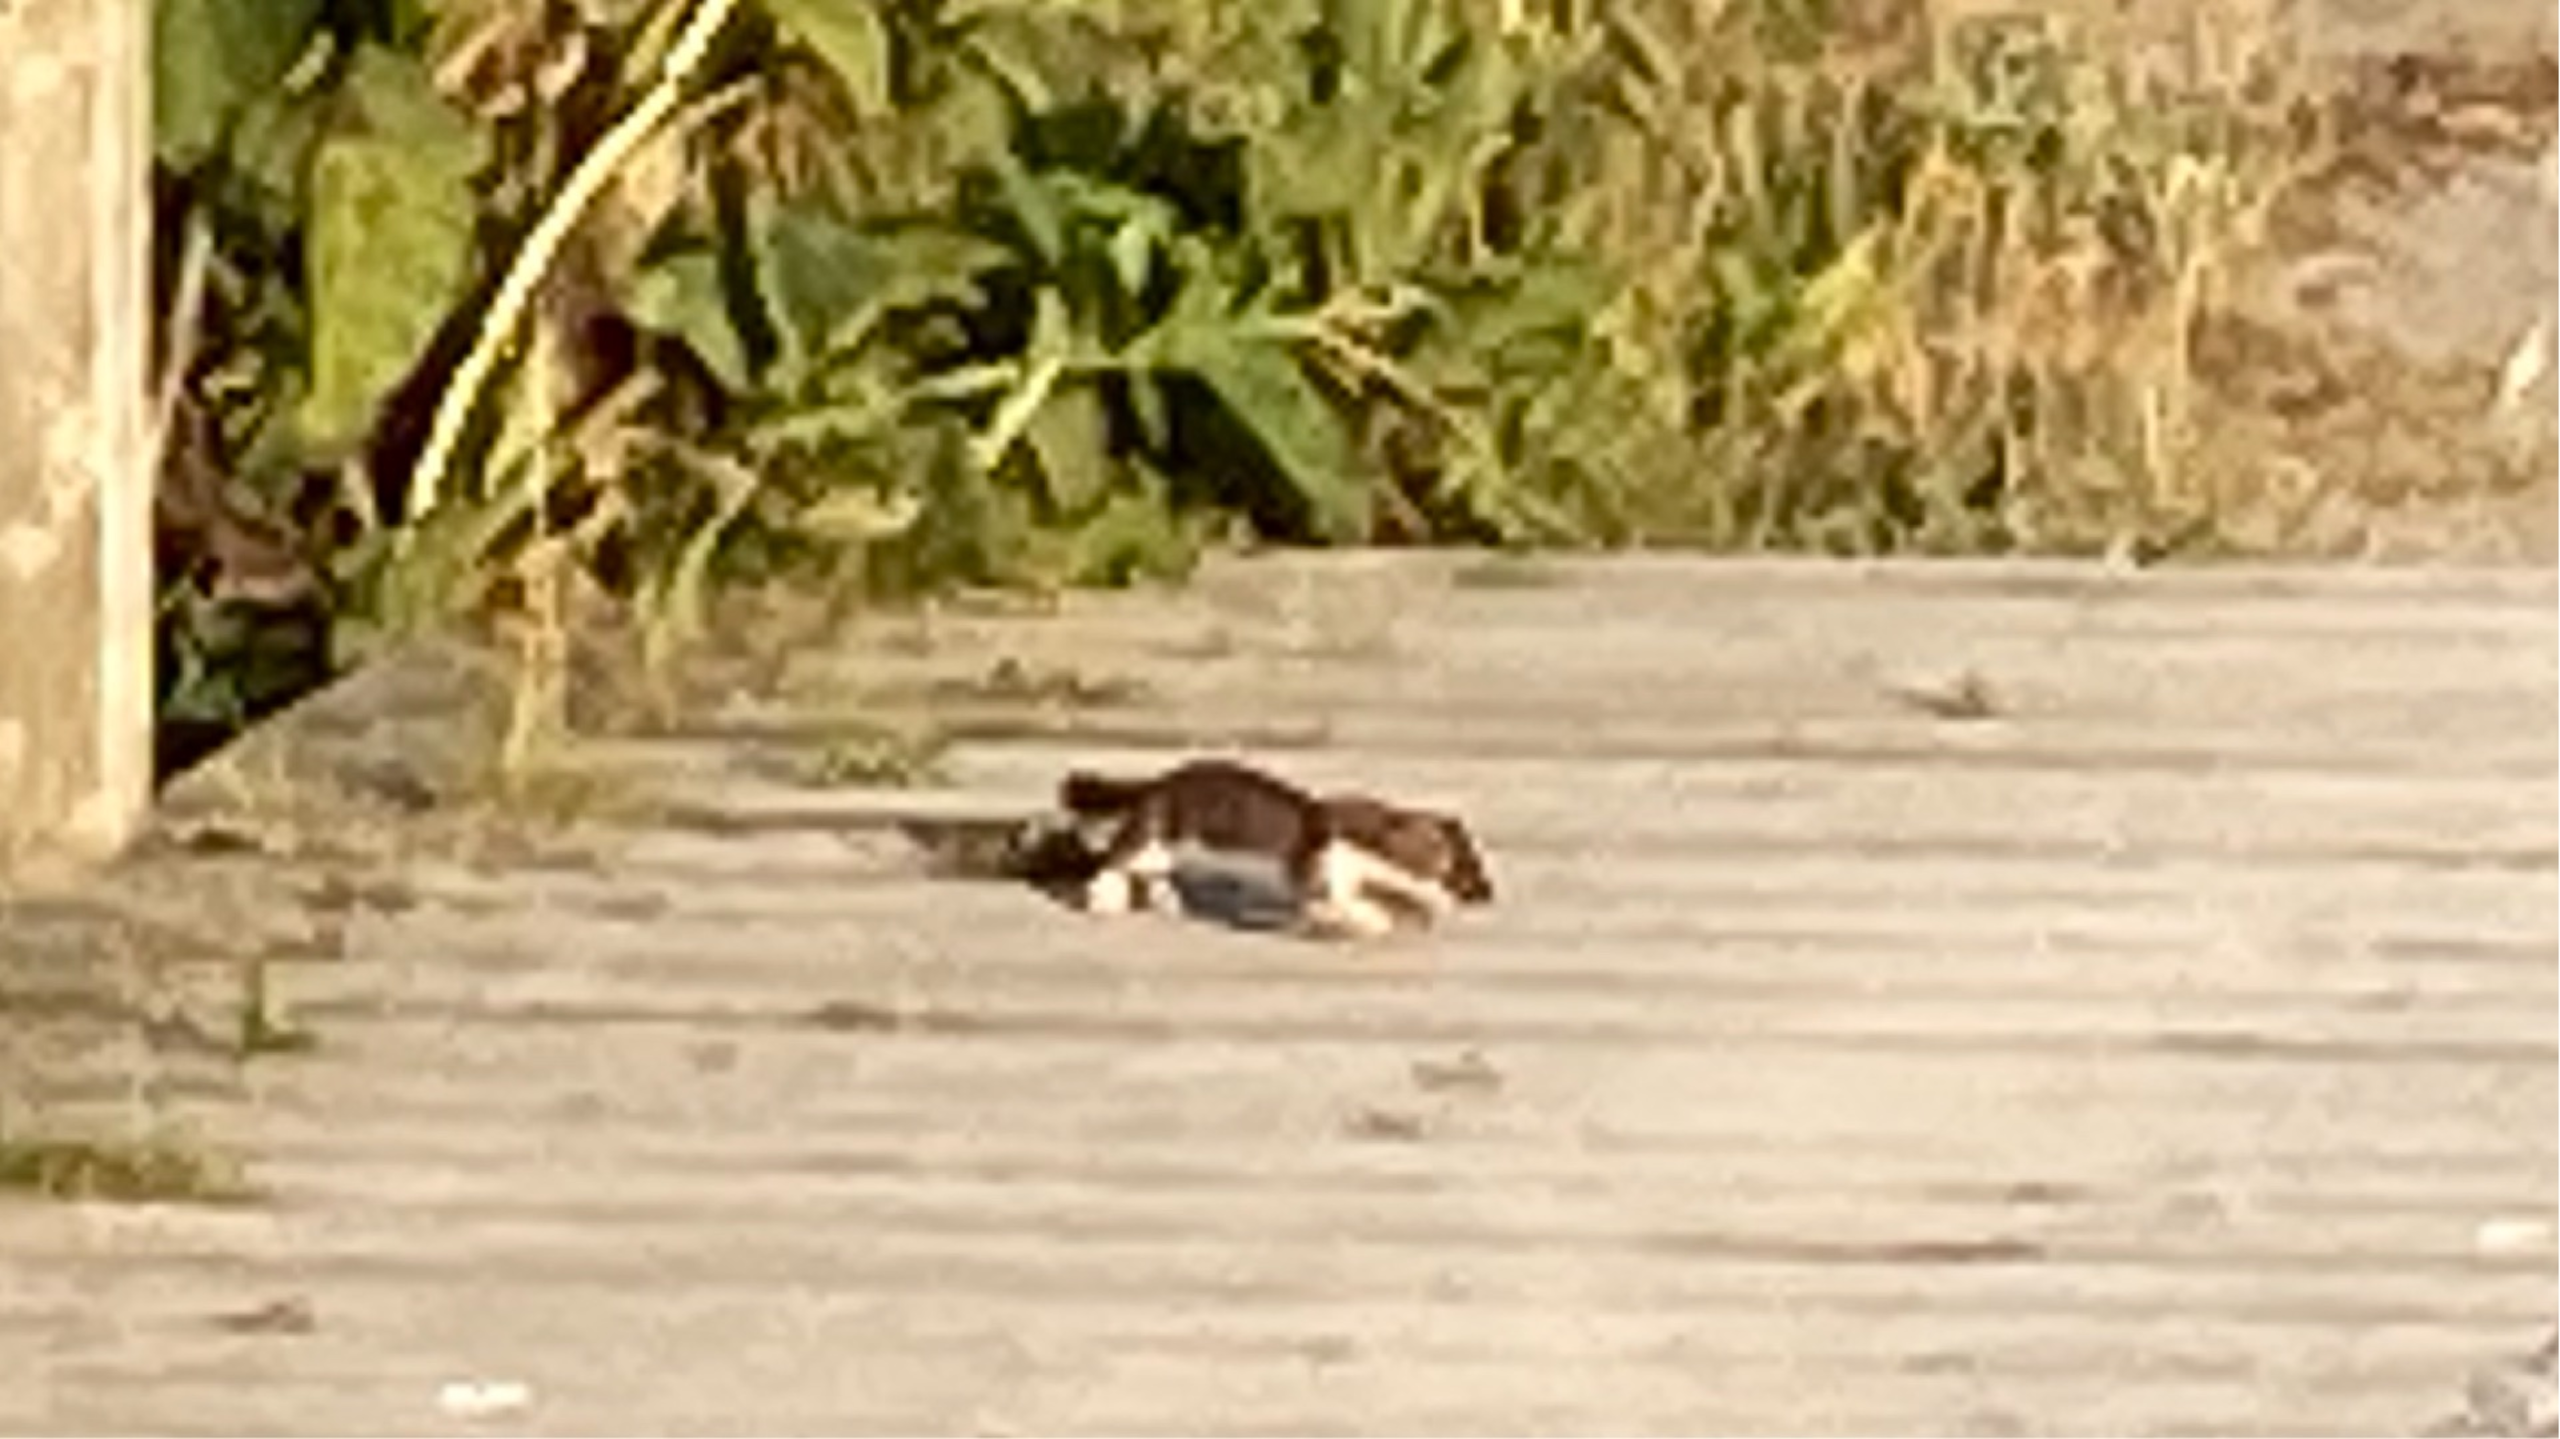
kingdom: Animalia
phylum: Chordata
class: Mammalia
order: Carnivora
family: Mustelidae
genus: Mustela
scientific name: Mustela nivalis
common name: Brud
